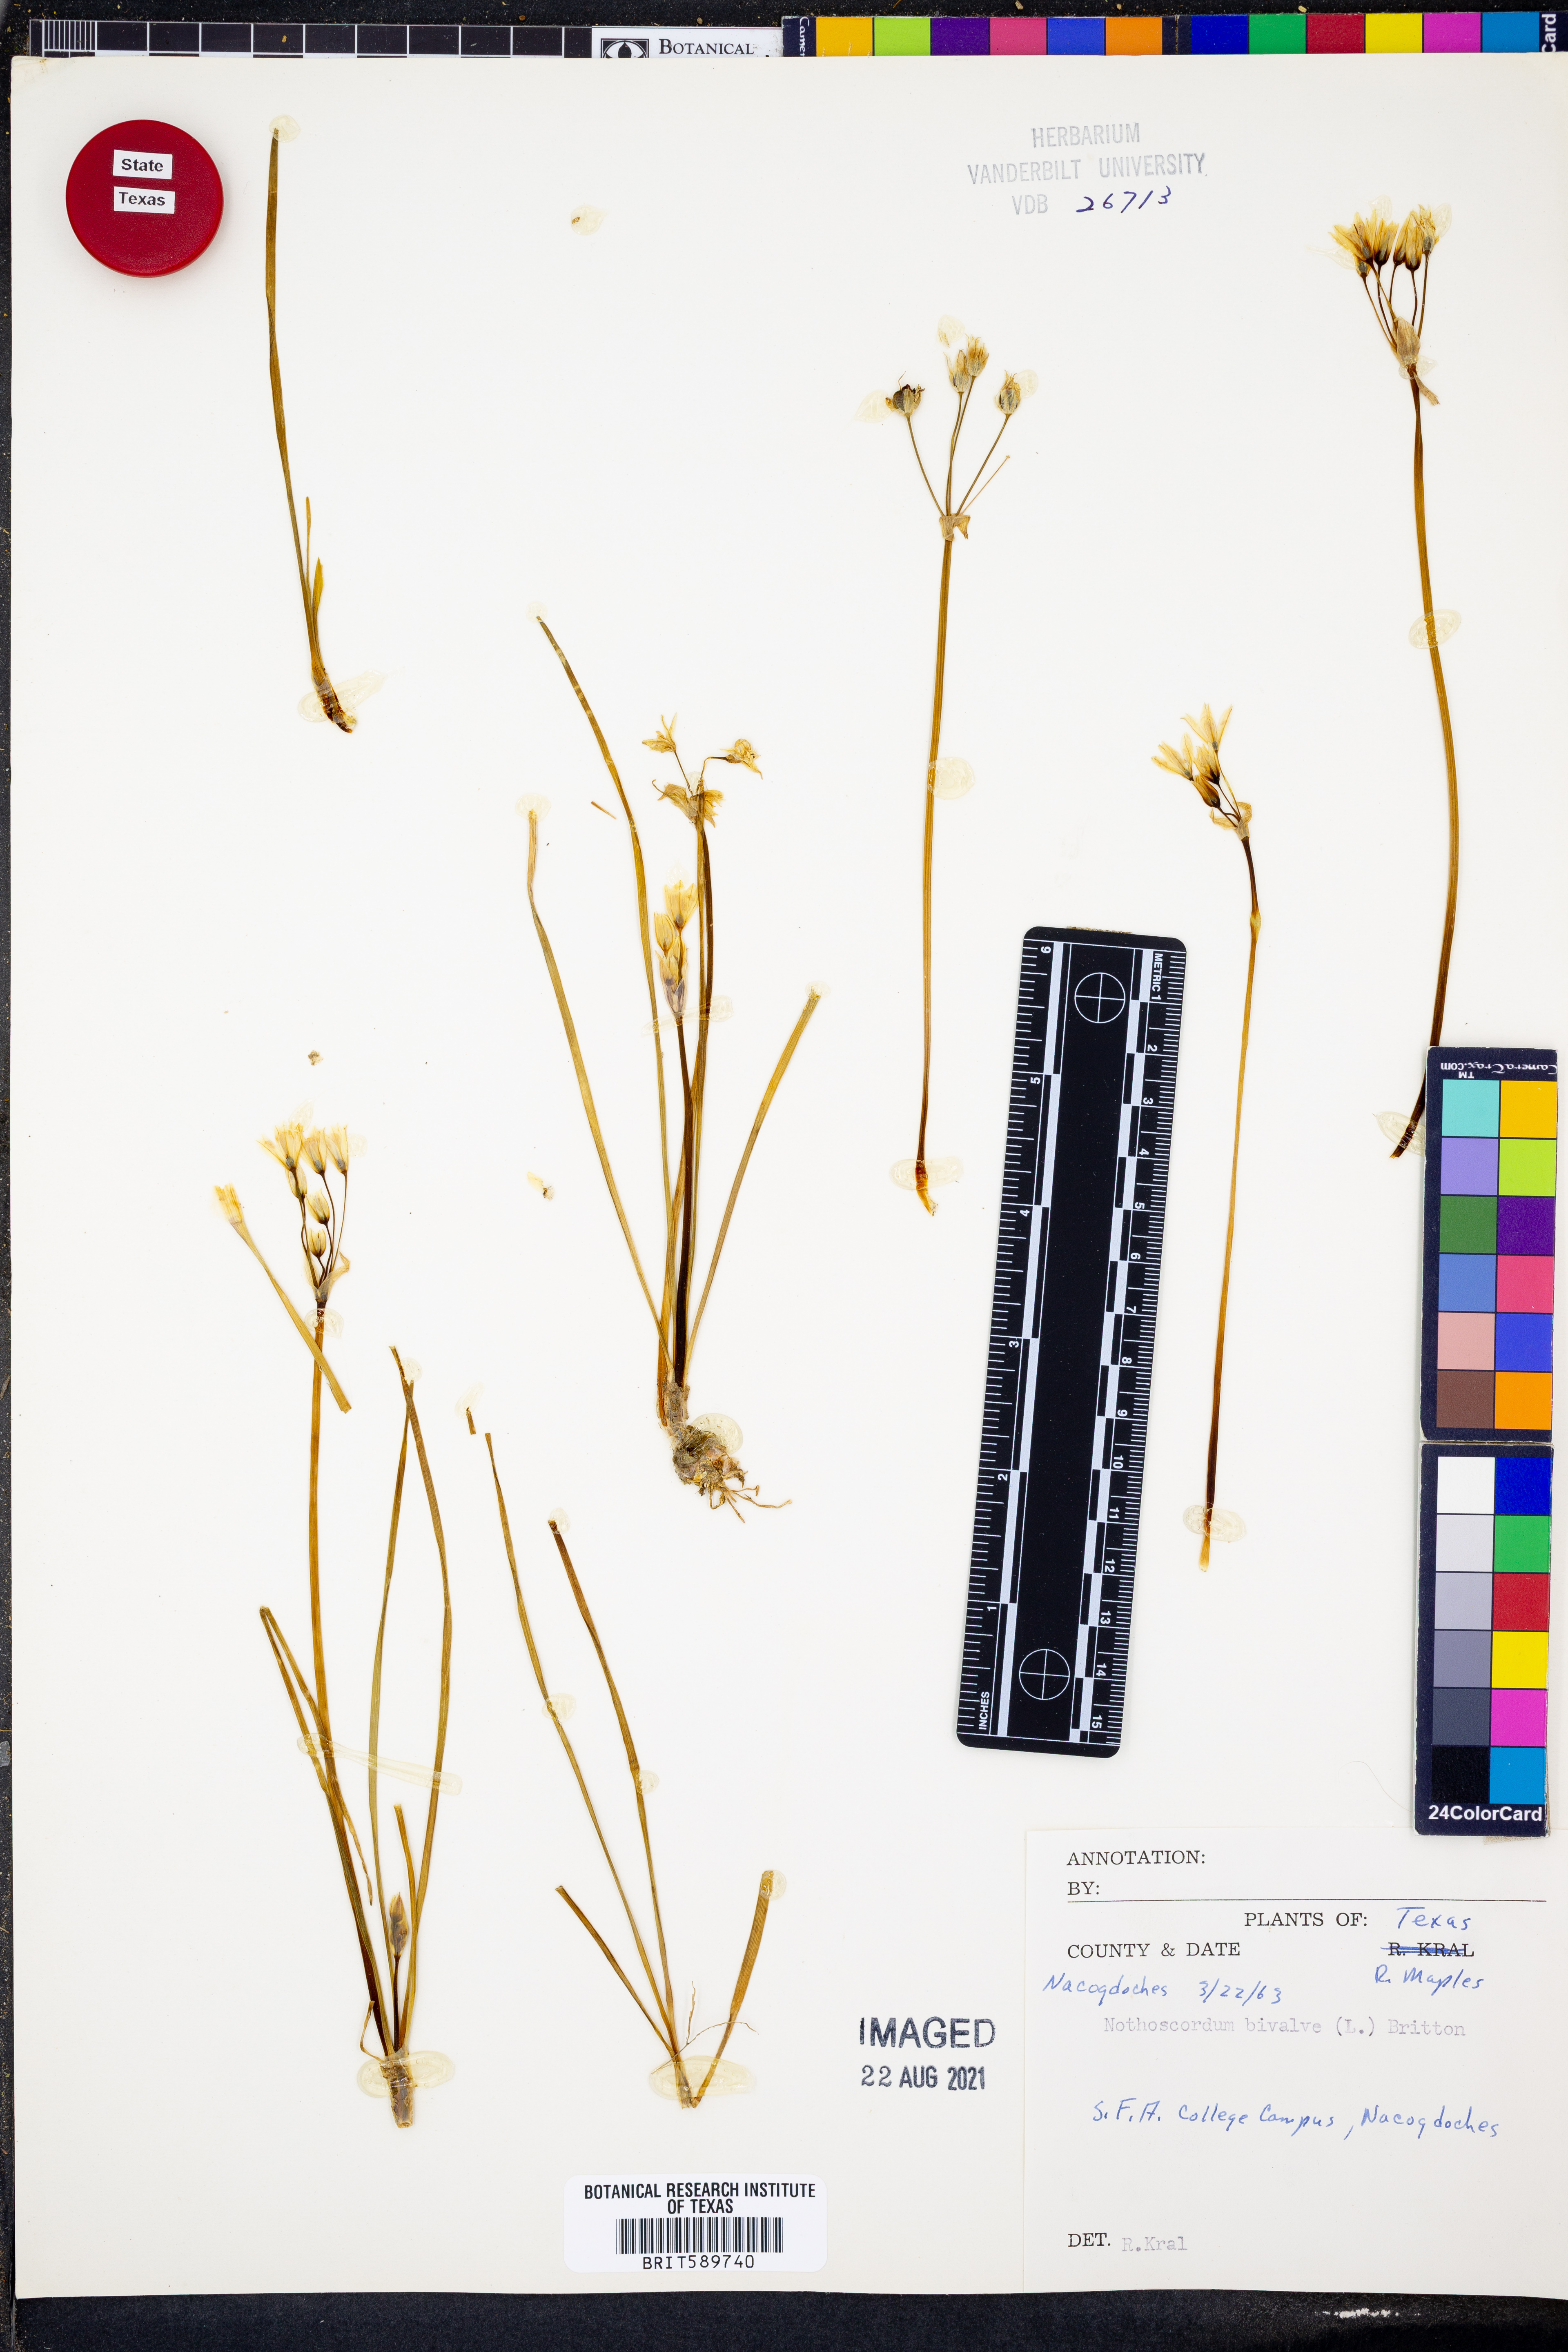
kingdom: Plantae
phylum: Tracheophyta
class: Liliopsida
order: Asparagales
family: Amaryllidaceae
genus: Nothoscordum
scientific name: Nothoscordum bivalve
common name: Crow-poison
